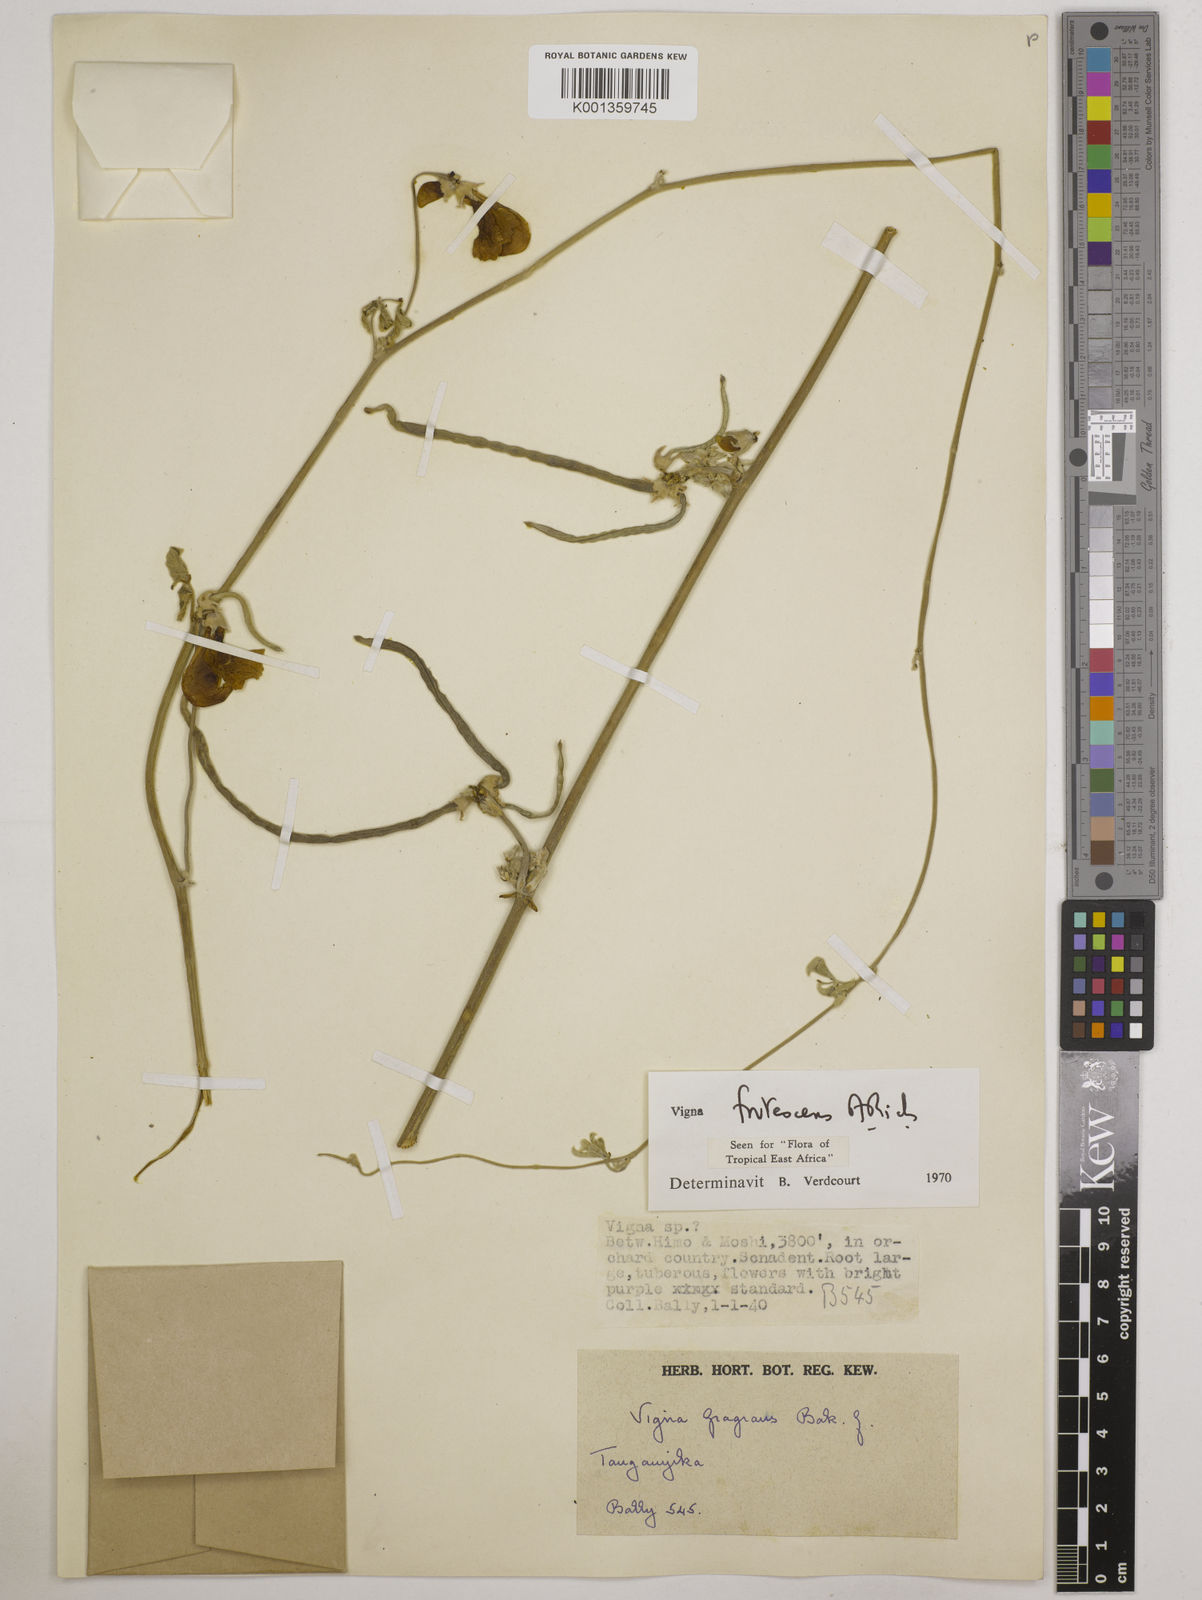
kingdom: Plantae
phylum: Tracheophyta
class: Magnoliopsida
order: Fabales
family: Fabaceae
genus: Vigna
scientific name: Vigna frutescens
